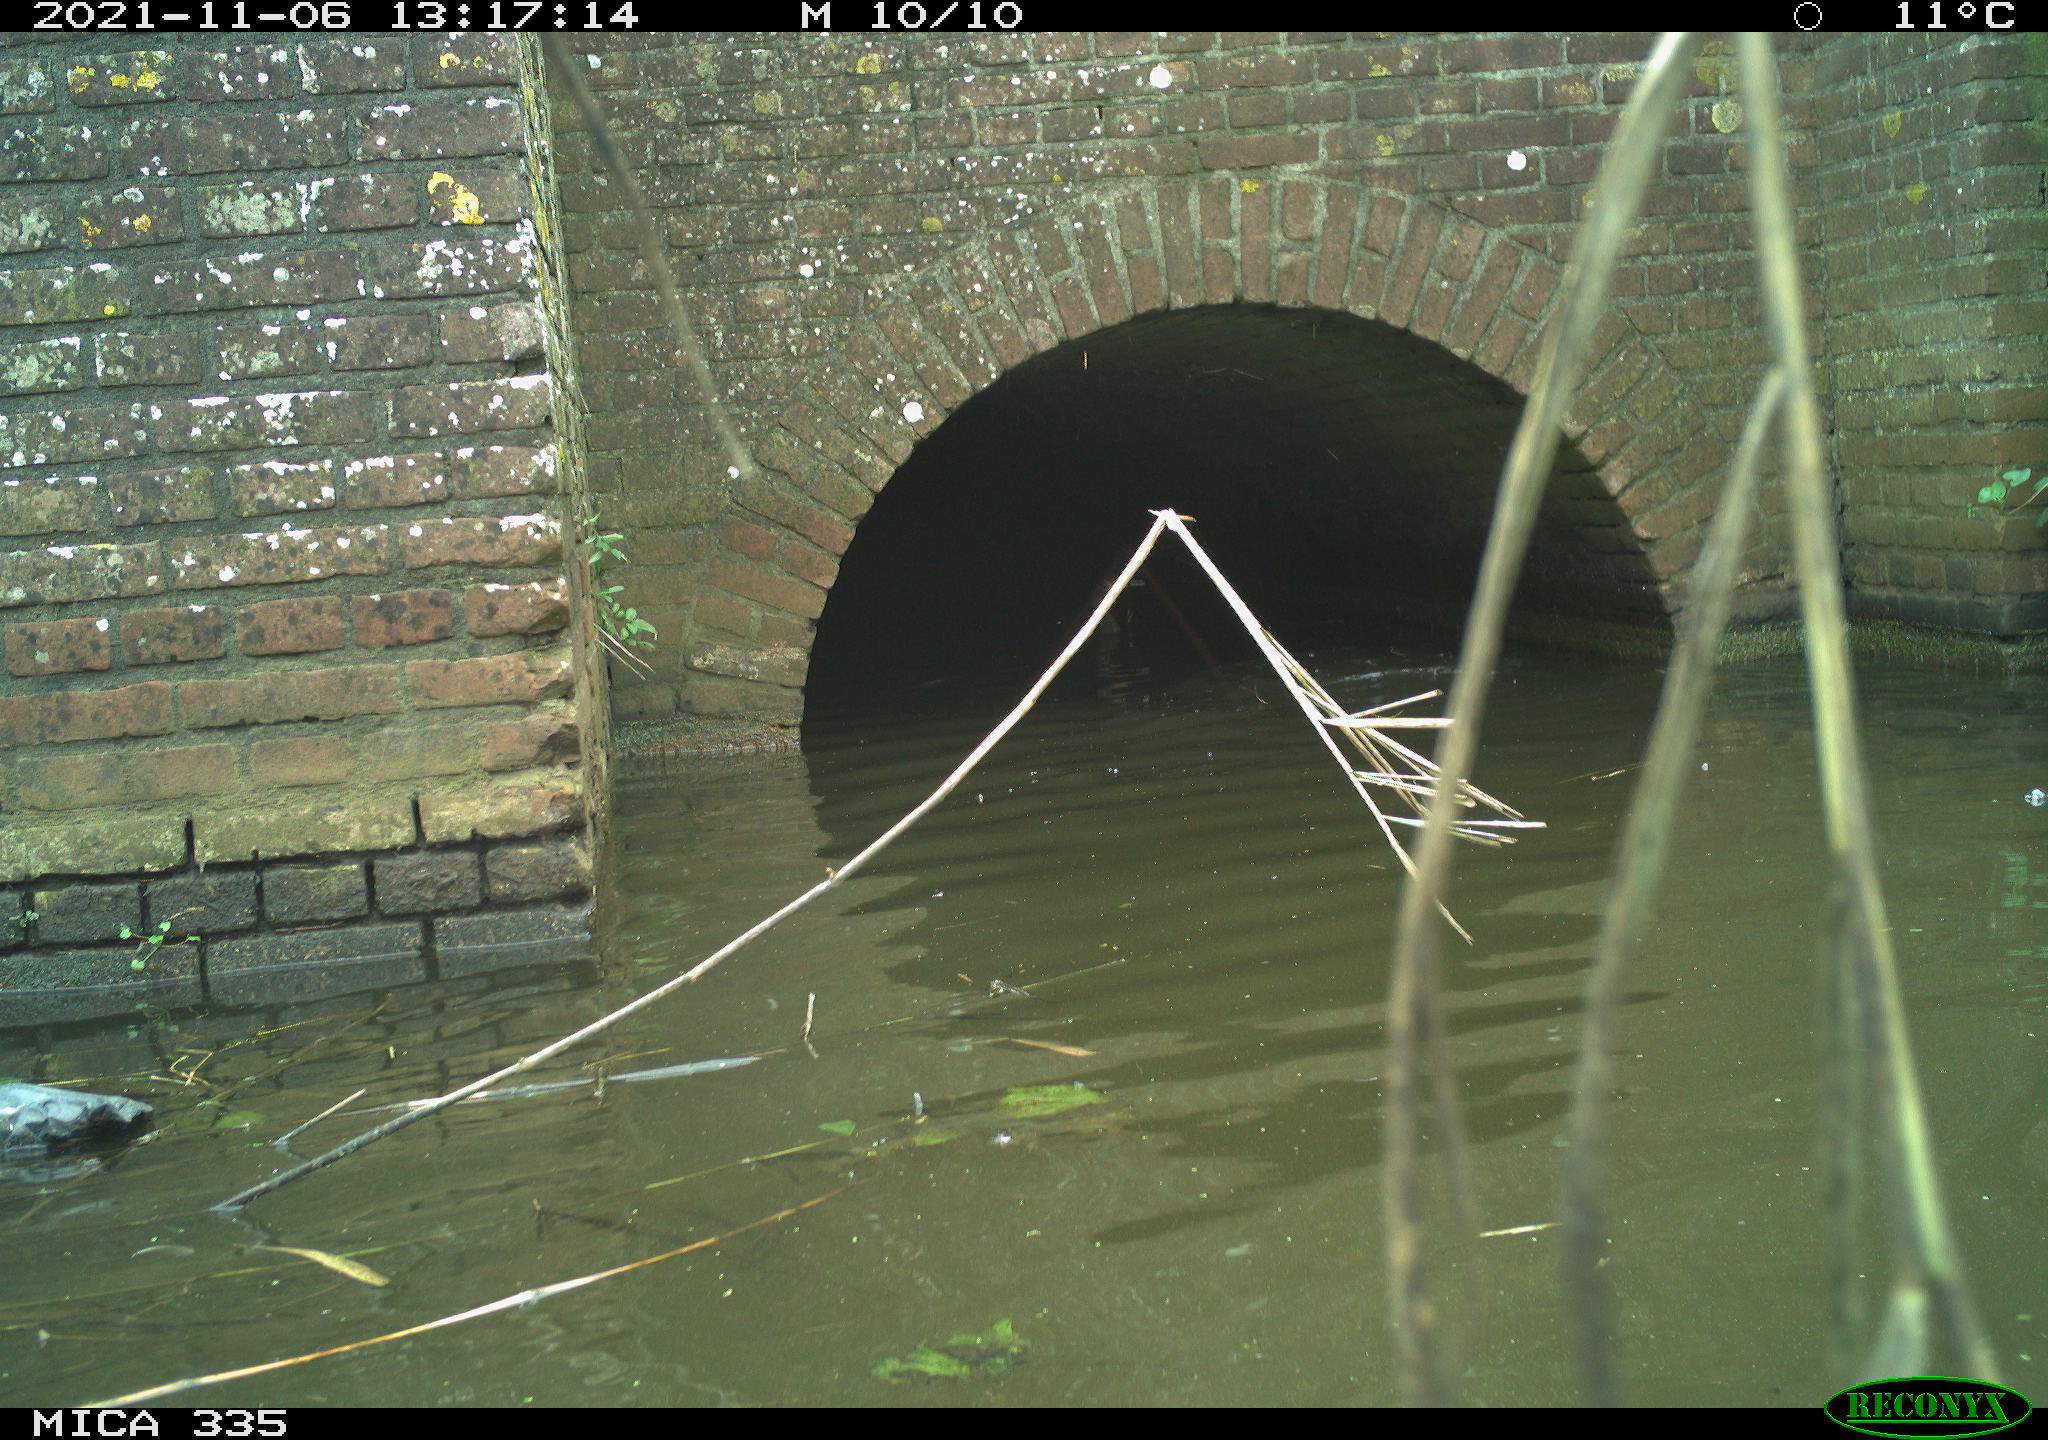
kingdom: Animalia
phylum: Chordata
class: Aves
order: Suliformes
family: Phalacrocoracidae
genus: Phalacrocorax
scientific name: Phalacrocorax carbo
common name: Great cormorant
